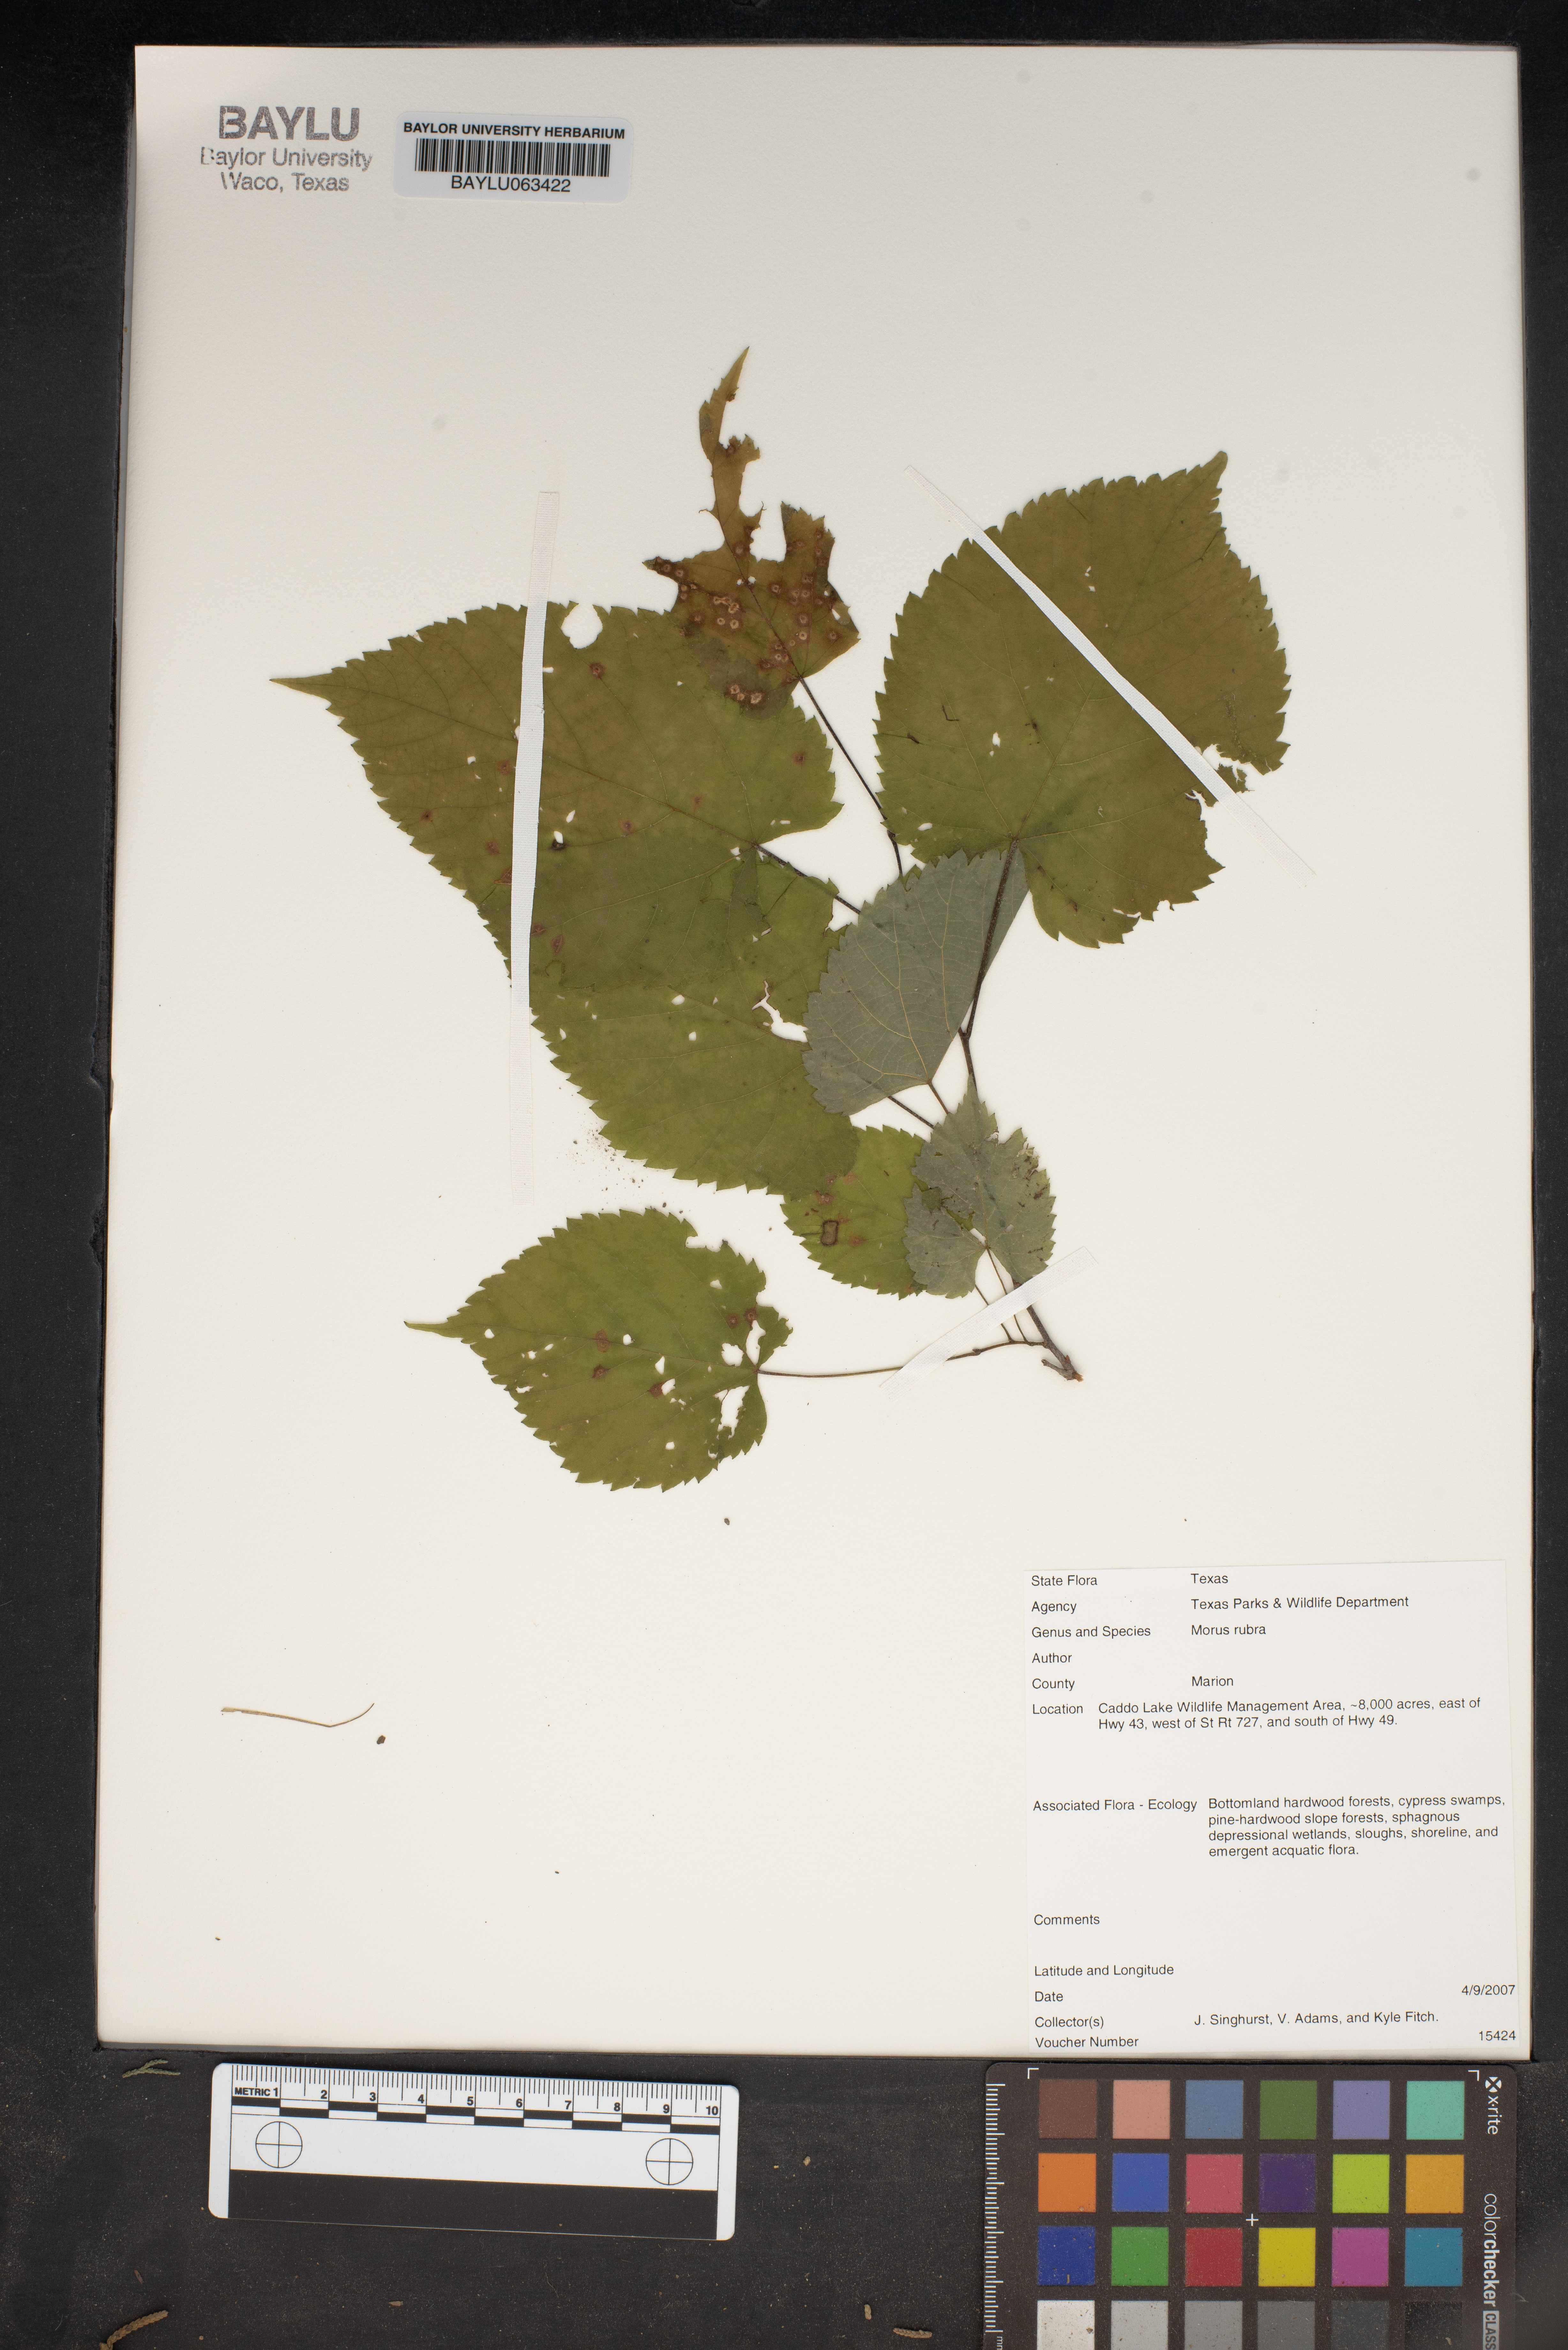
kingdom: Plantae
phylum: Tracheophyta
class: Magnoliopsida
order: Rosales
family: Moraceae
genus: Morus
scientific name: Morus rubra
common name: Red mulberry
